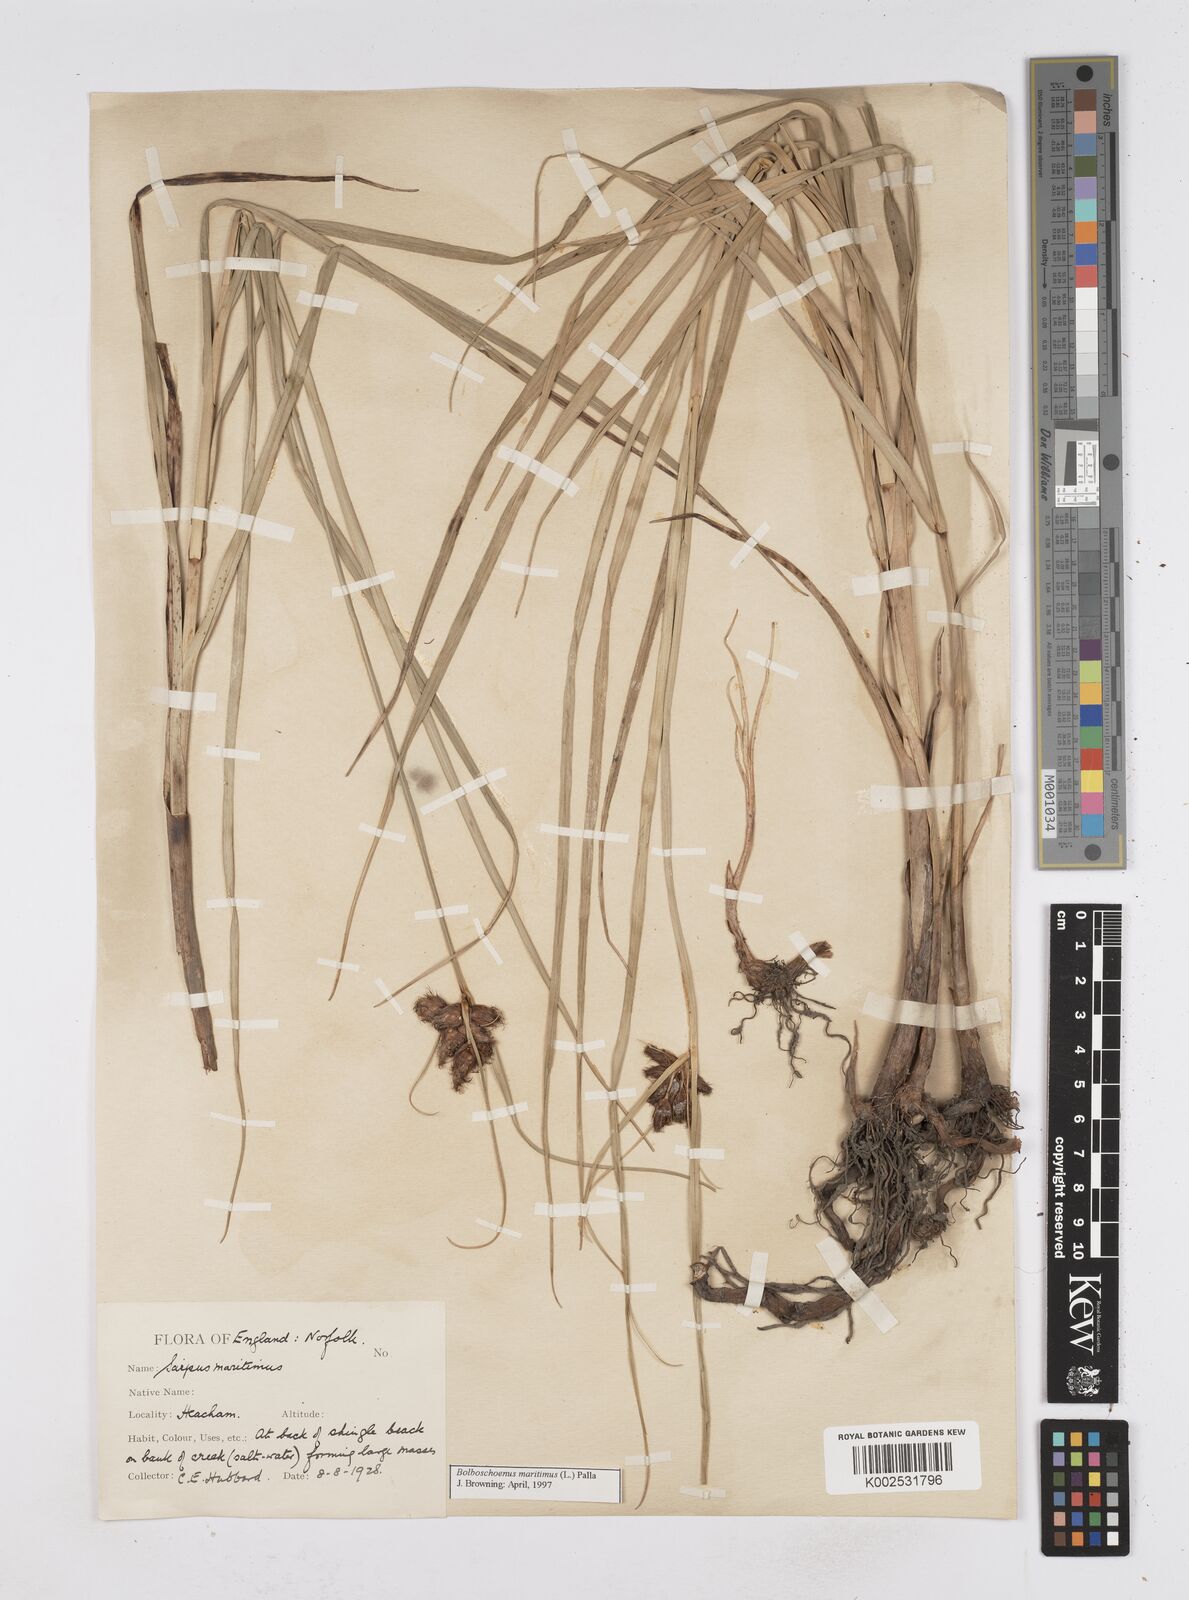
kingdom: Plantae
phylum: Tracheophyta
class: Liliopsida
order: Poales
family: Cyperaceae
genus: Bolboschoenus
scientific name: Bolboschoenus maritimus
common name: Sea club-rush
